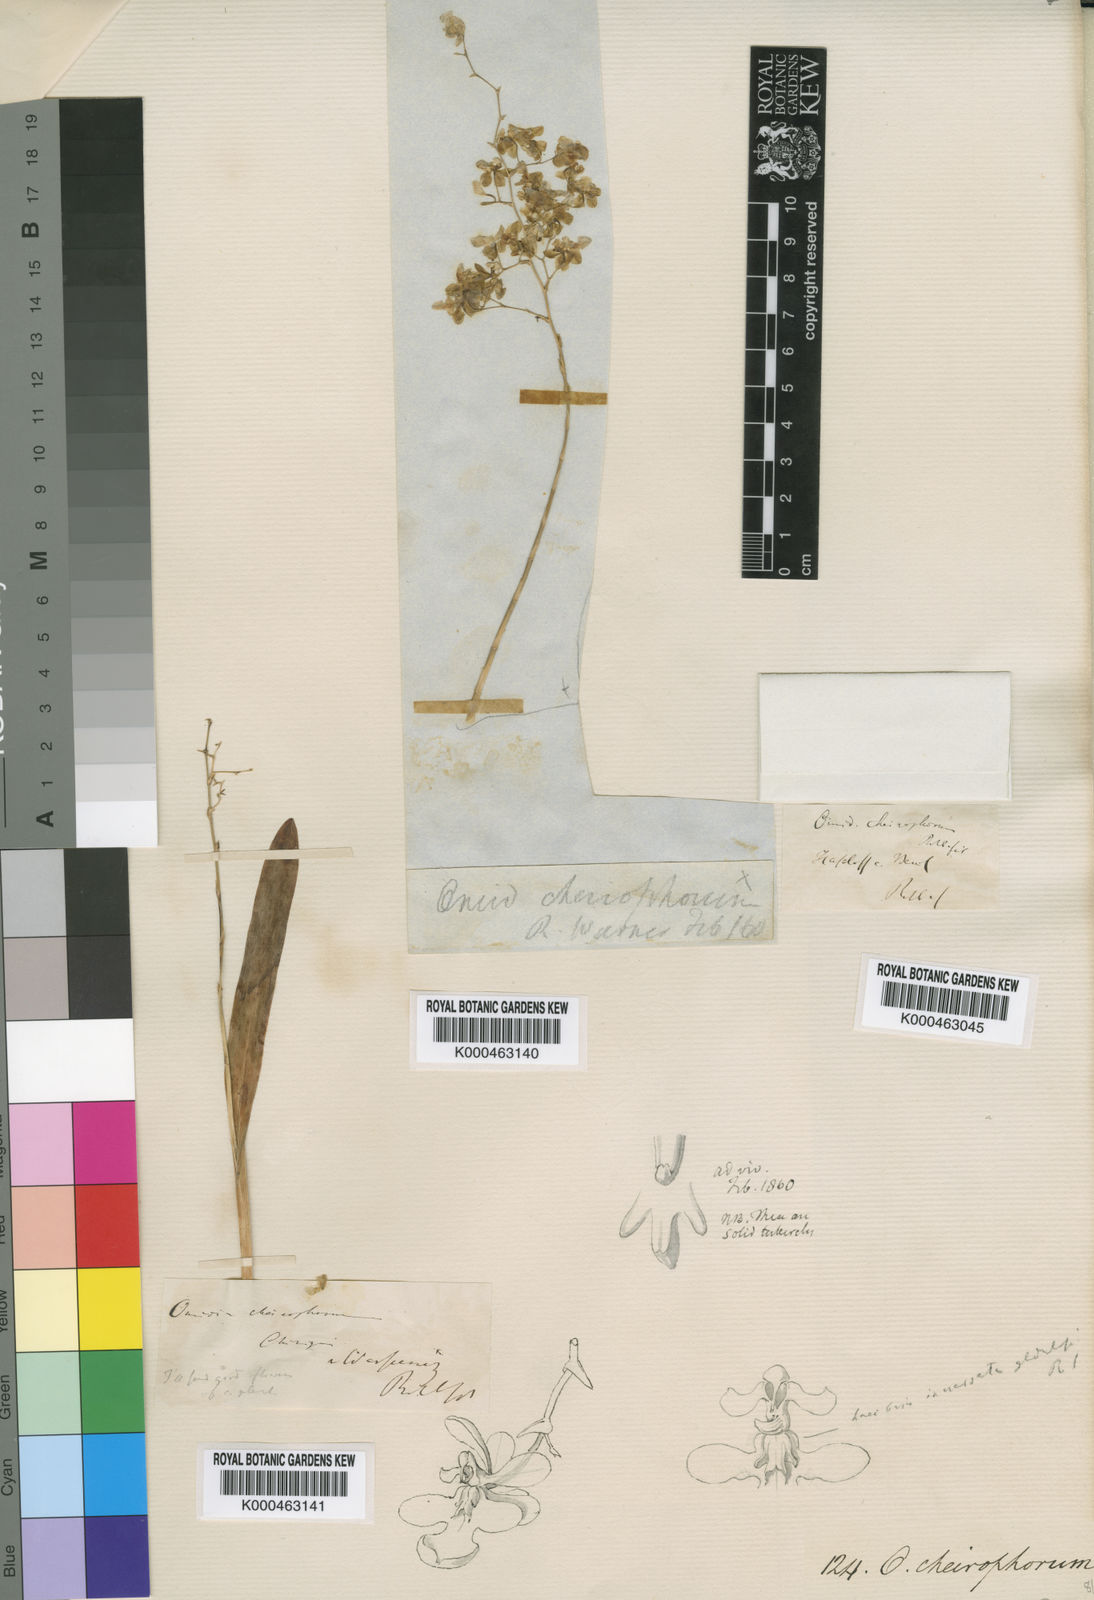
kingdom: Plantae
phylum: Tracheophyta
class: Liliopsida
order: Asparagales
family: Orchidaceae
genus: Acianthera
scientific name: Acianthera sicaria
